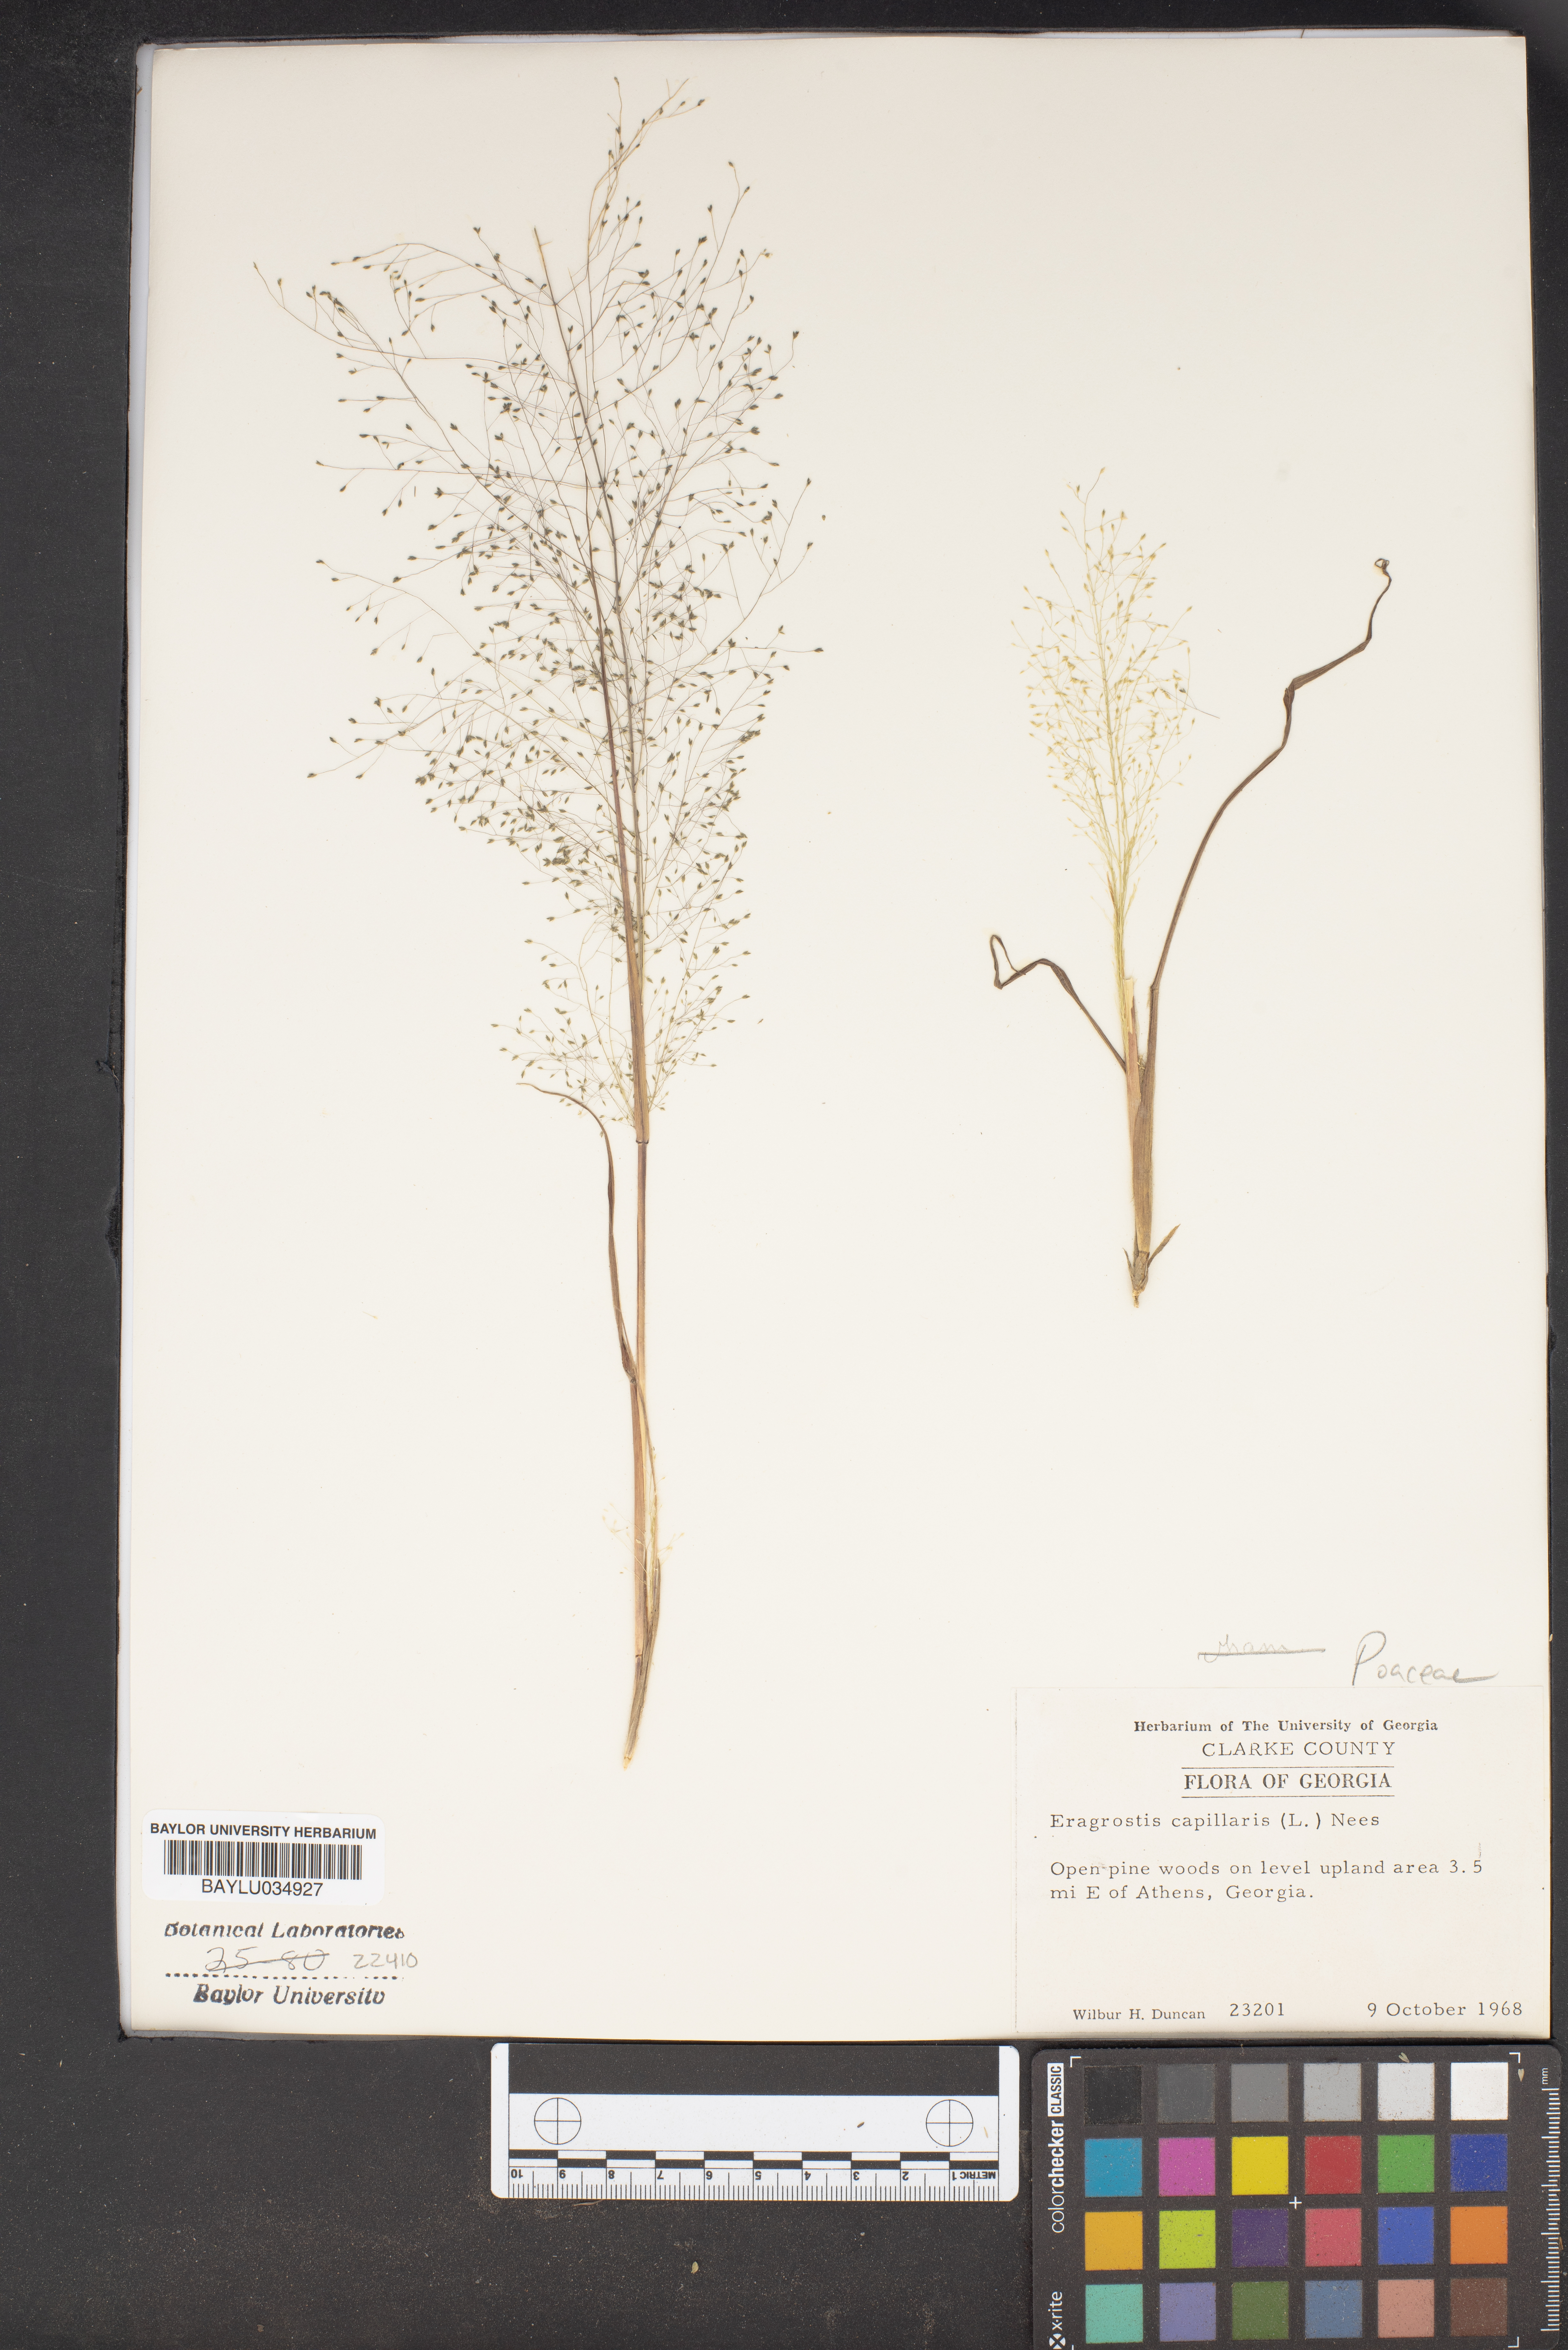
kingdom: Plantae
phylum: Tracheophyta
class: Liliopsida
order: Poales
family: Poaceae
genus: Eragrostis
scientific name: Eragrostis capillaris
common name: Hair-like lovegrass
